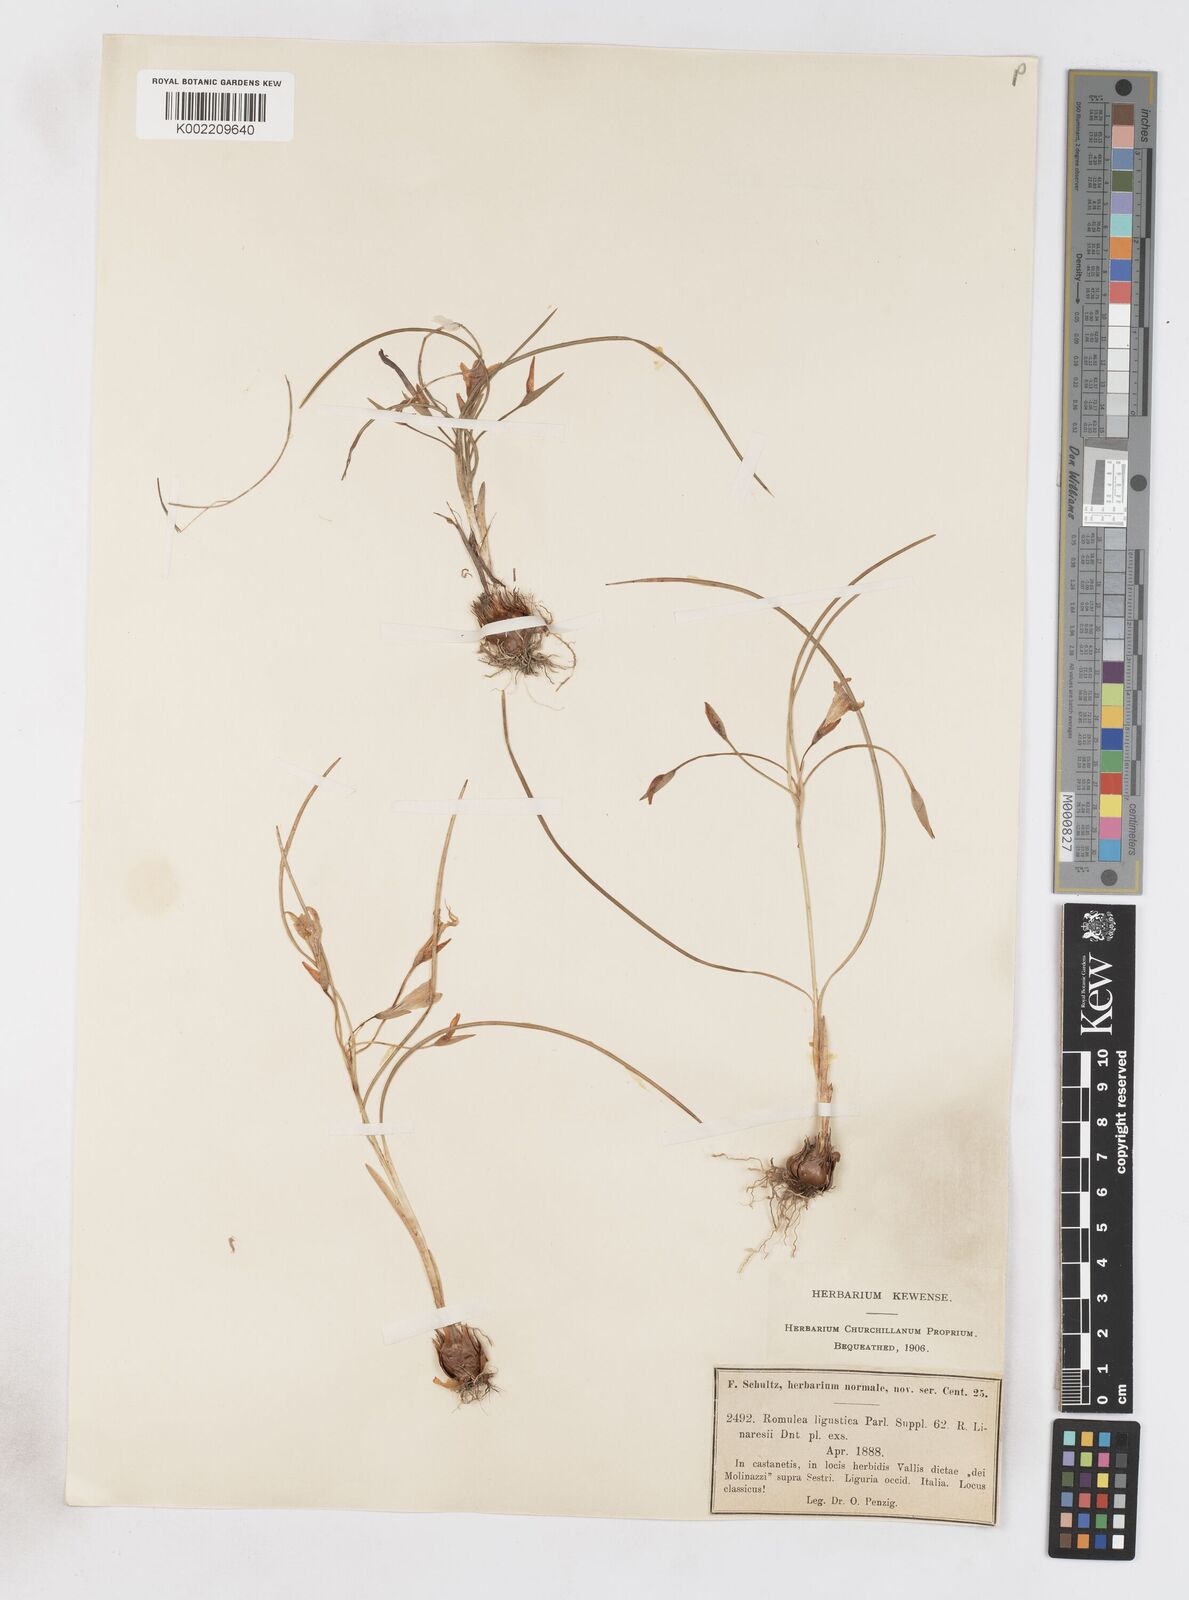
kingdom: Plantae
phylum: Tracheophyta
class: Liliopsida
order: Asparagales
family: Iridaceae
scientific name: Iridaceae
